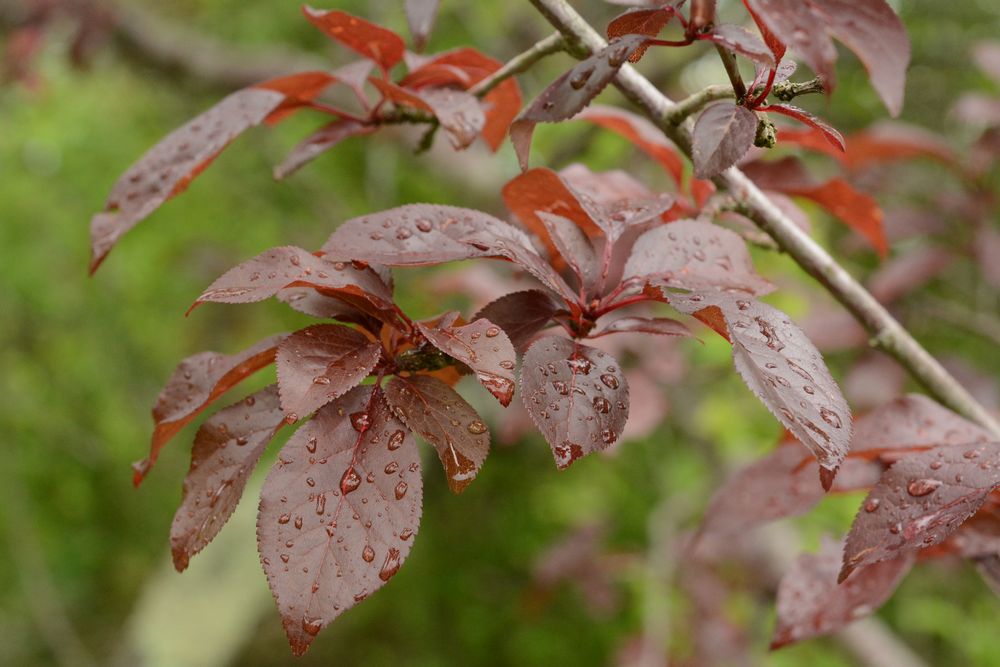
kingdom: Plantae
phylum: Tracheophyta
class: Magnoliopsida
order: Rosales
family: Rosaceae
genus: Prunus
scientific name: Prunus cerasifera
